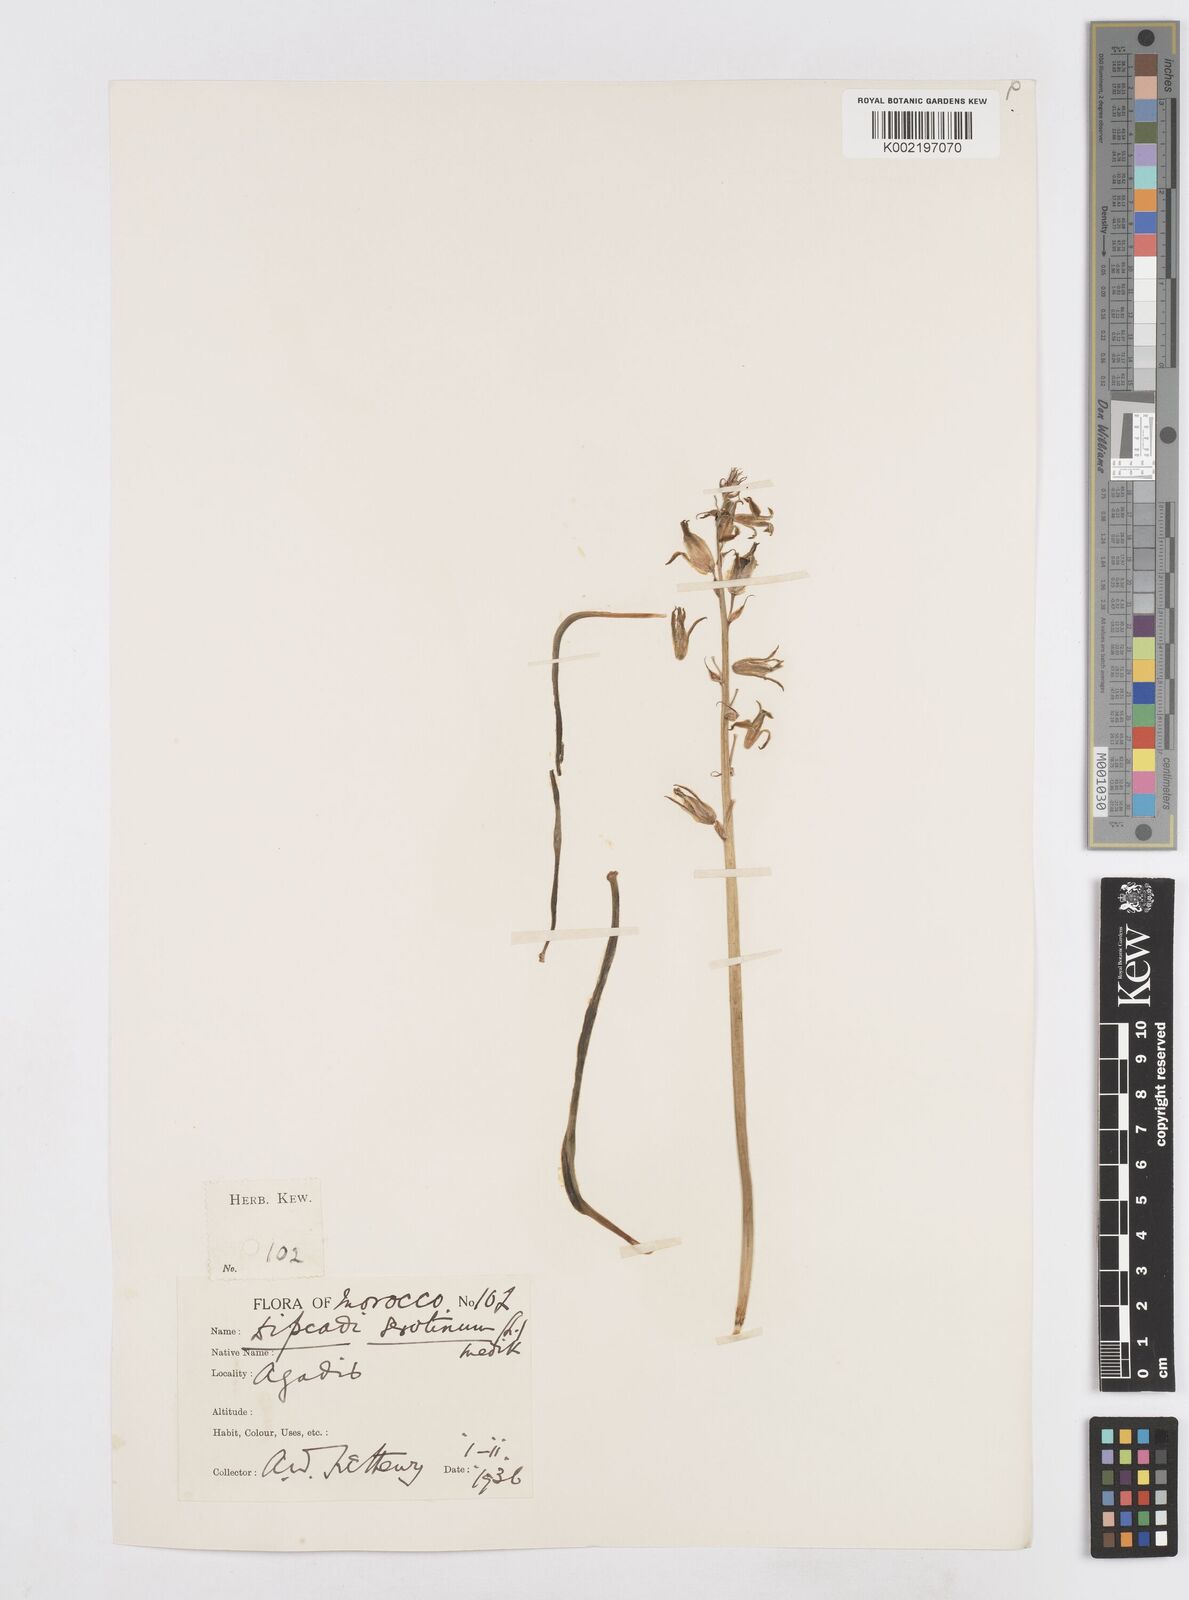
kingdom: Plantae
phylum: Tracheophyta
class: Liliopsida
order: Asparagales
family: Asparagaceae
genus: Dipcadi
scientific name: Dipcadi serotinum
